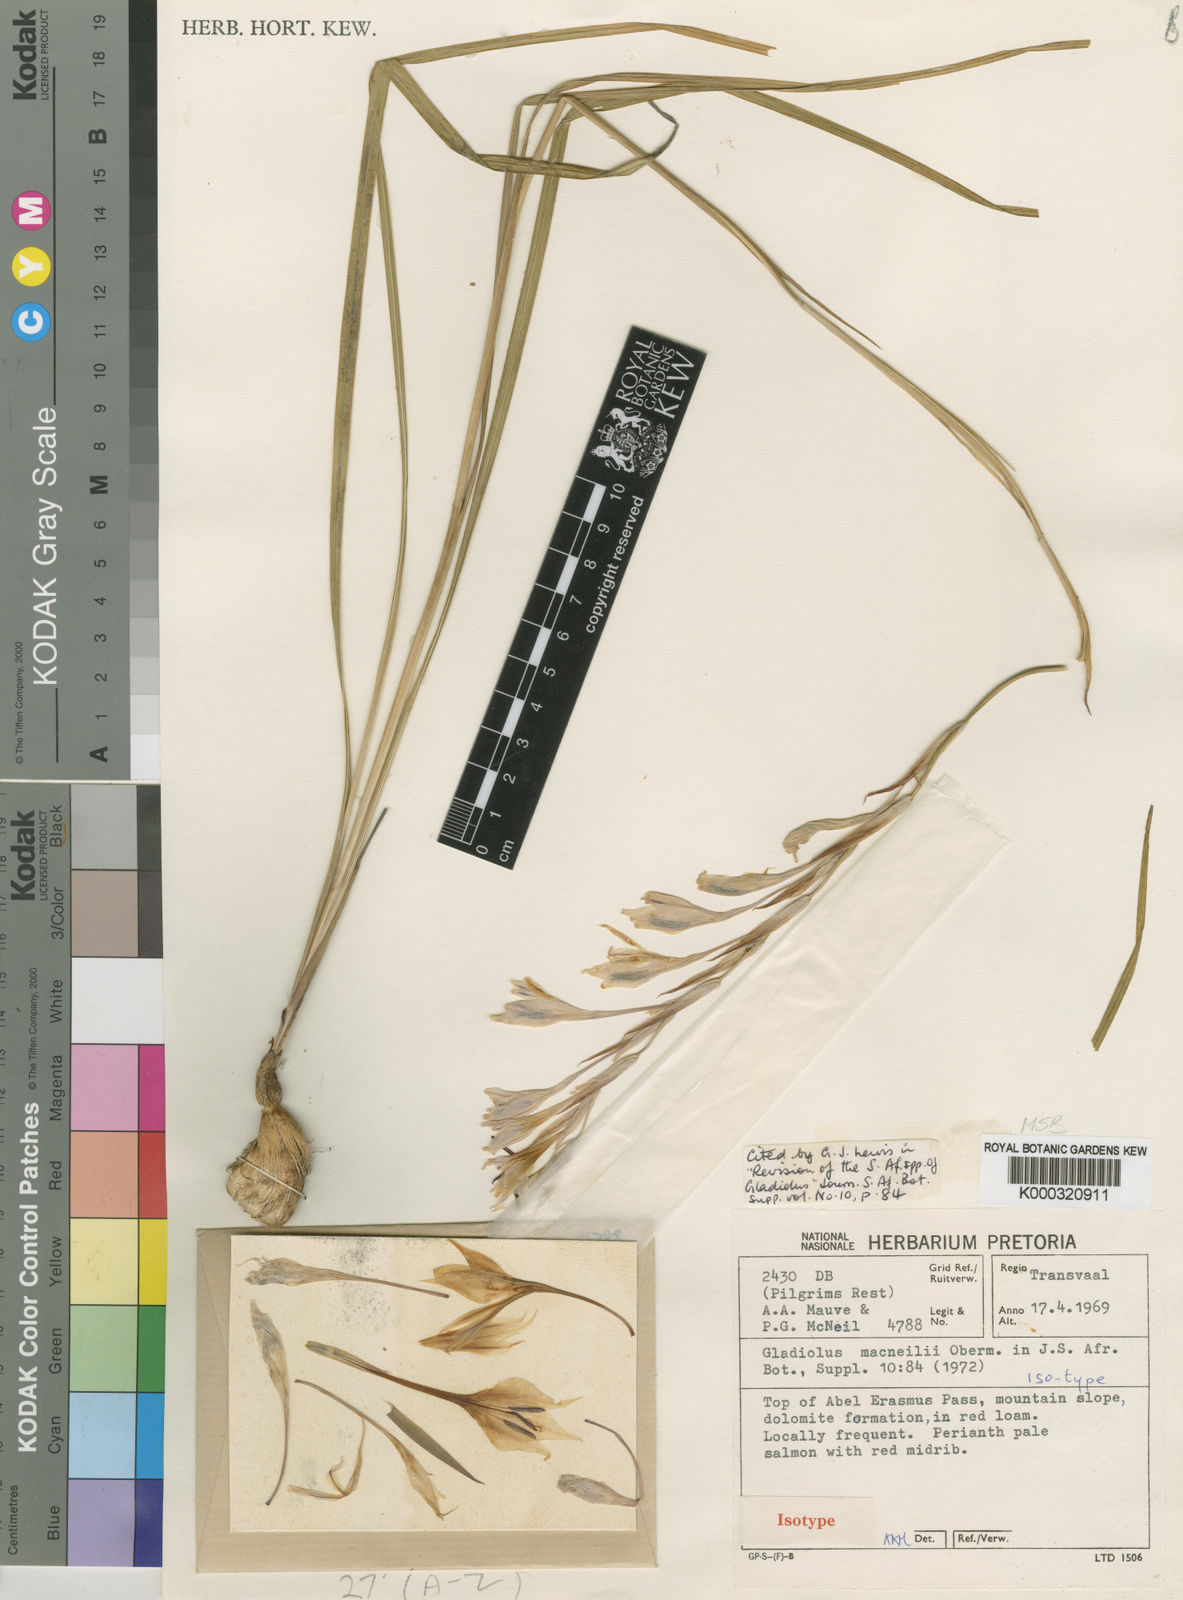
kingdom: Plantae
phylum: Tracheophyta
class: Liliopsida
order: Asparagales
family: Iridaceae
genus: Gladiolus
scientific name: Gladiolus macneilii
